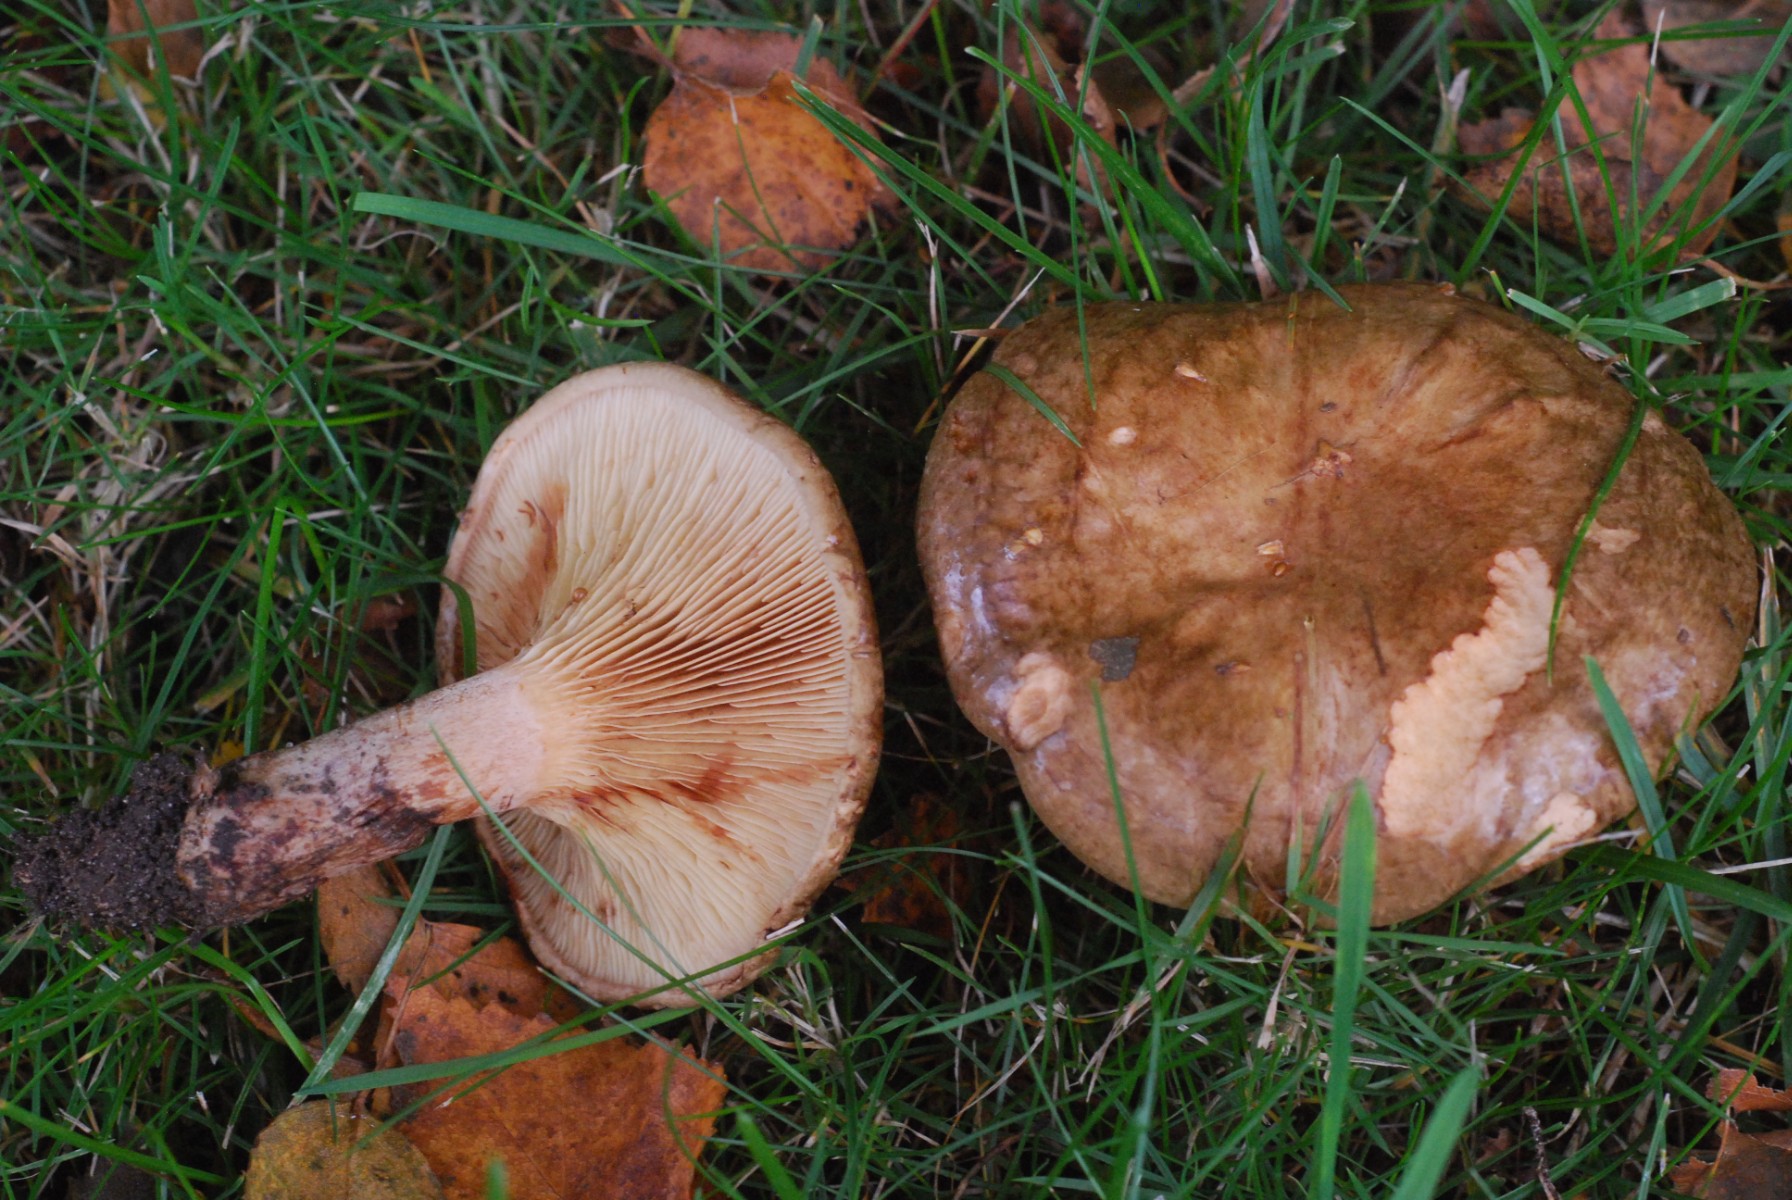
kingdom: Fungi
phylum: Basidiomycota
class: Agaricomycetes
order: Boletales
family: Paxillaceae
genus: Paxillus
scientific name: Paxillus involutus
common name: almindelig netbladhat
